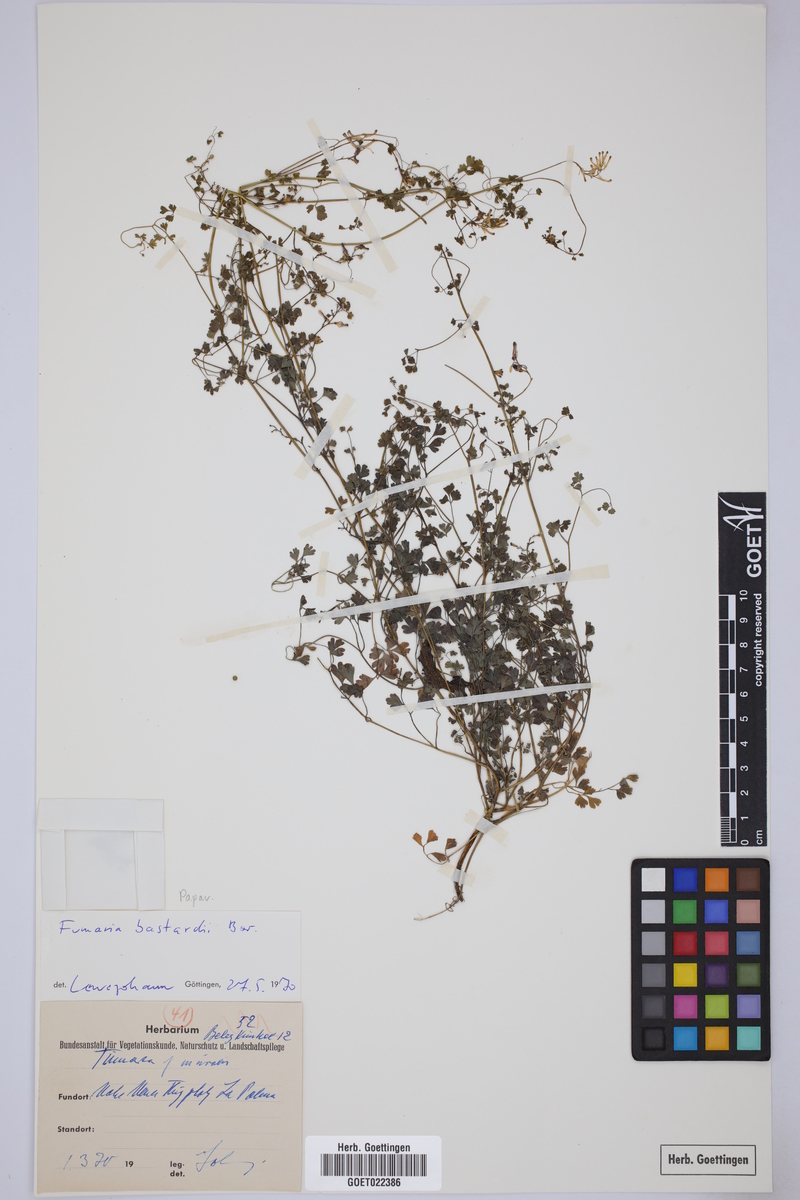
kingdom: Plantae
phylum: Tracheophyta
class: Magnoliopsida
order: Ranunculales
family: Papaveraceae
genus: Fumaria
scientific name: Fumaria bastardii
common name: Tall ramping-fumitory
